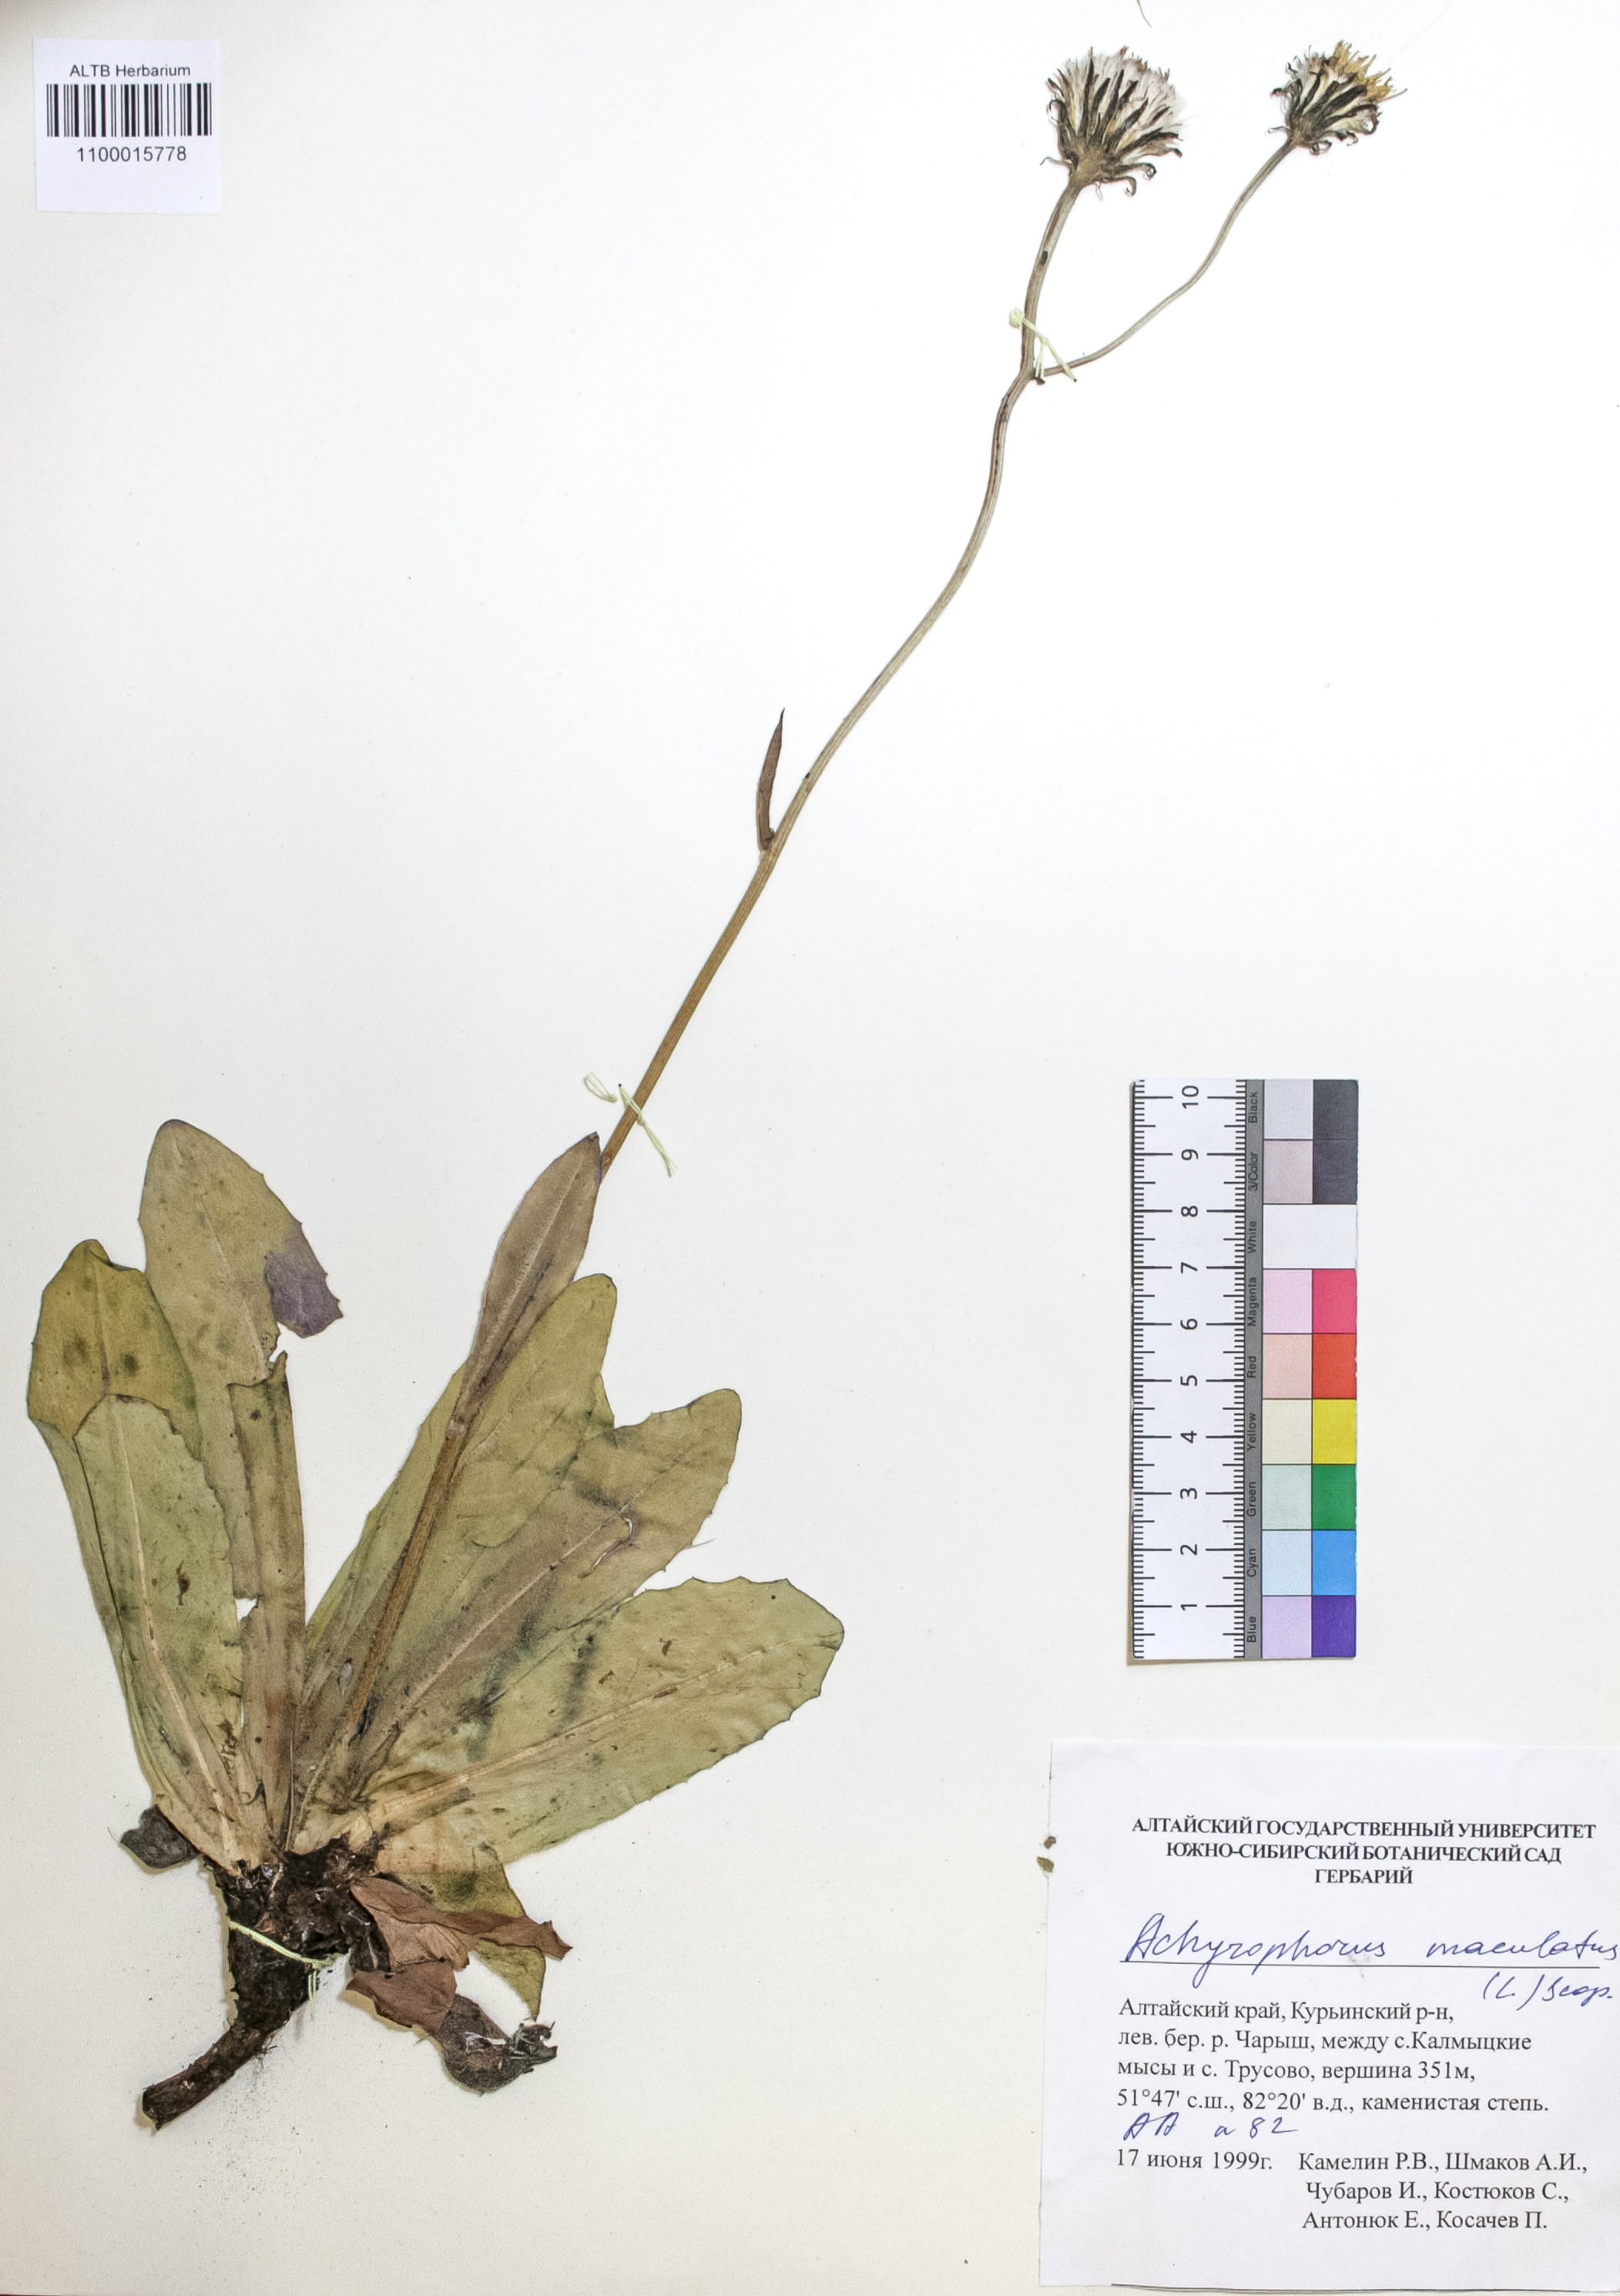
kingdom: Plantae
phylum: Tracheophyta
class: Magnoliopsida
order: Asterales
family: Asteraceae
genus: Trommsdorffia
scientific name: Trommsdorffia maculata
